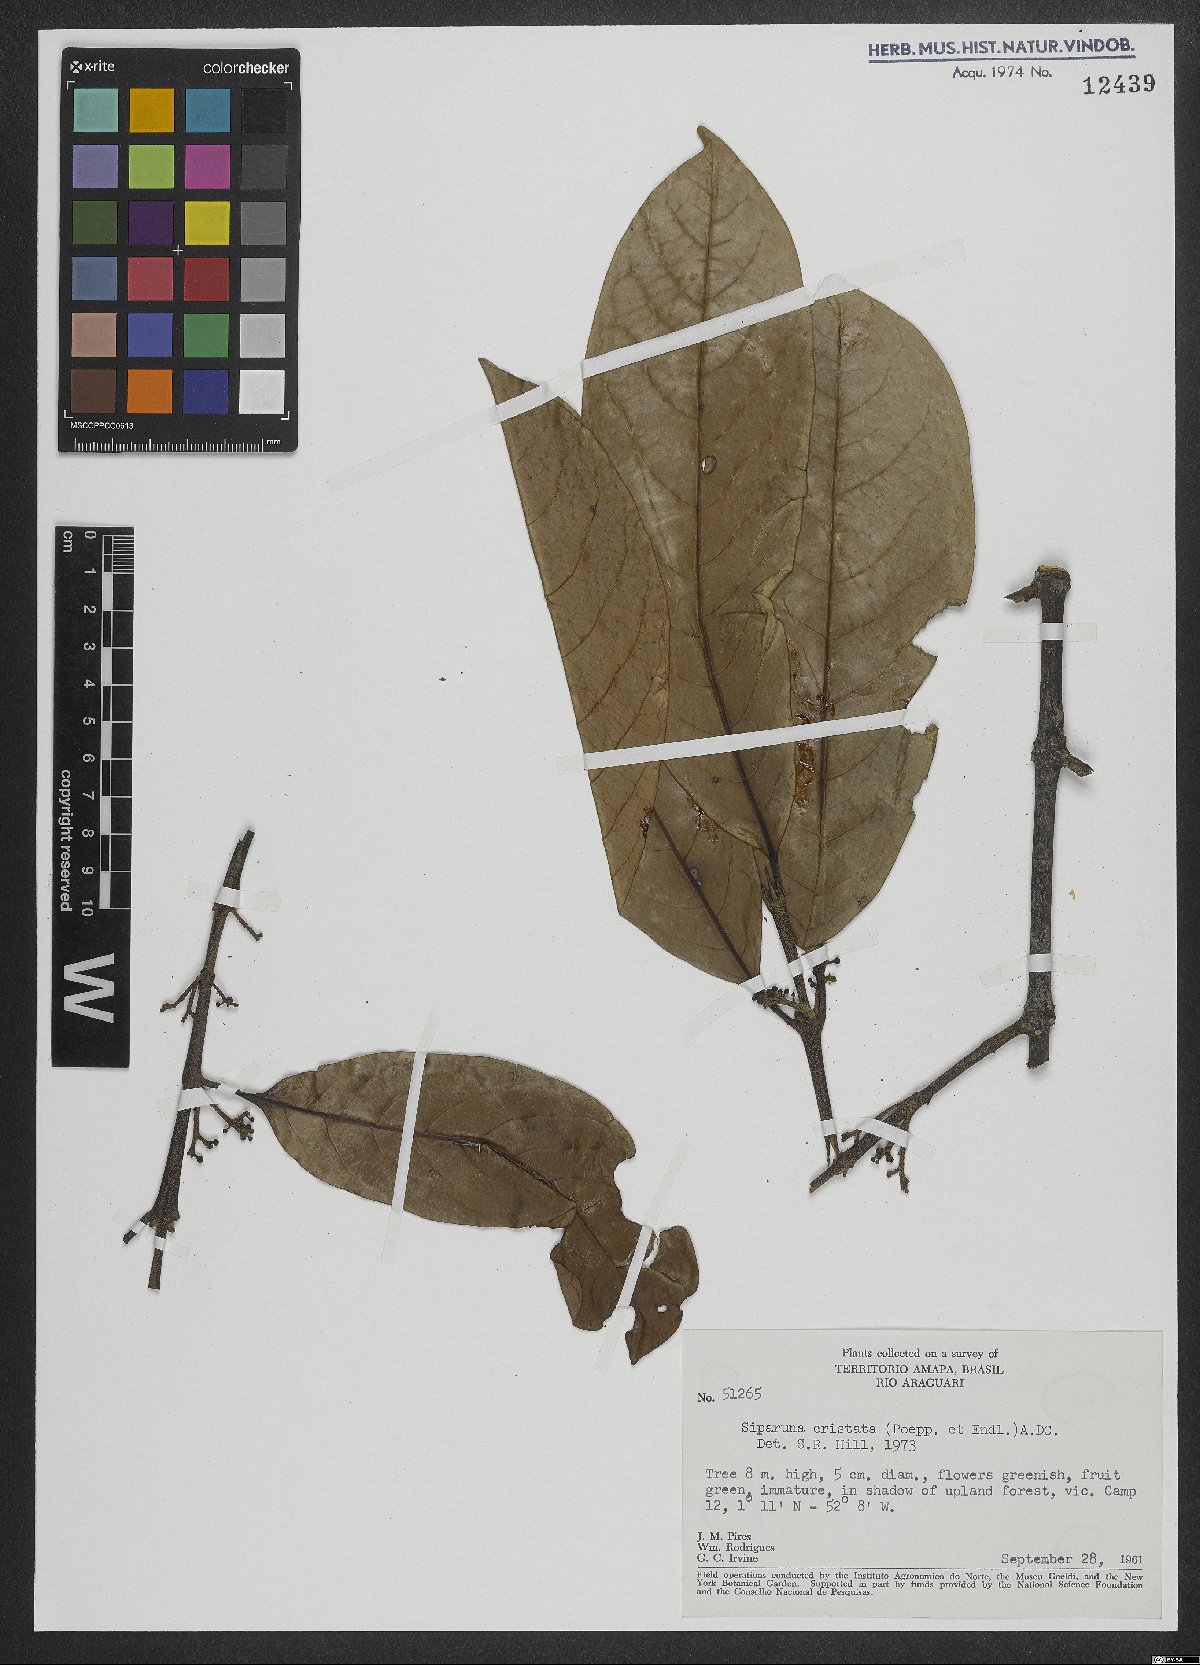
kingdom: Plantae
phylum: Tracheophyta
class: Magnoliopsida
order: Laurales
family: Siparunaceae
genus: Siparuna
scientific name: Siparuna cristata
